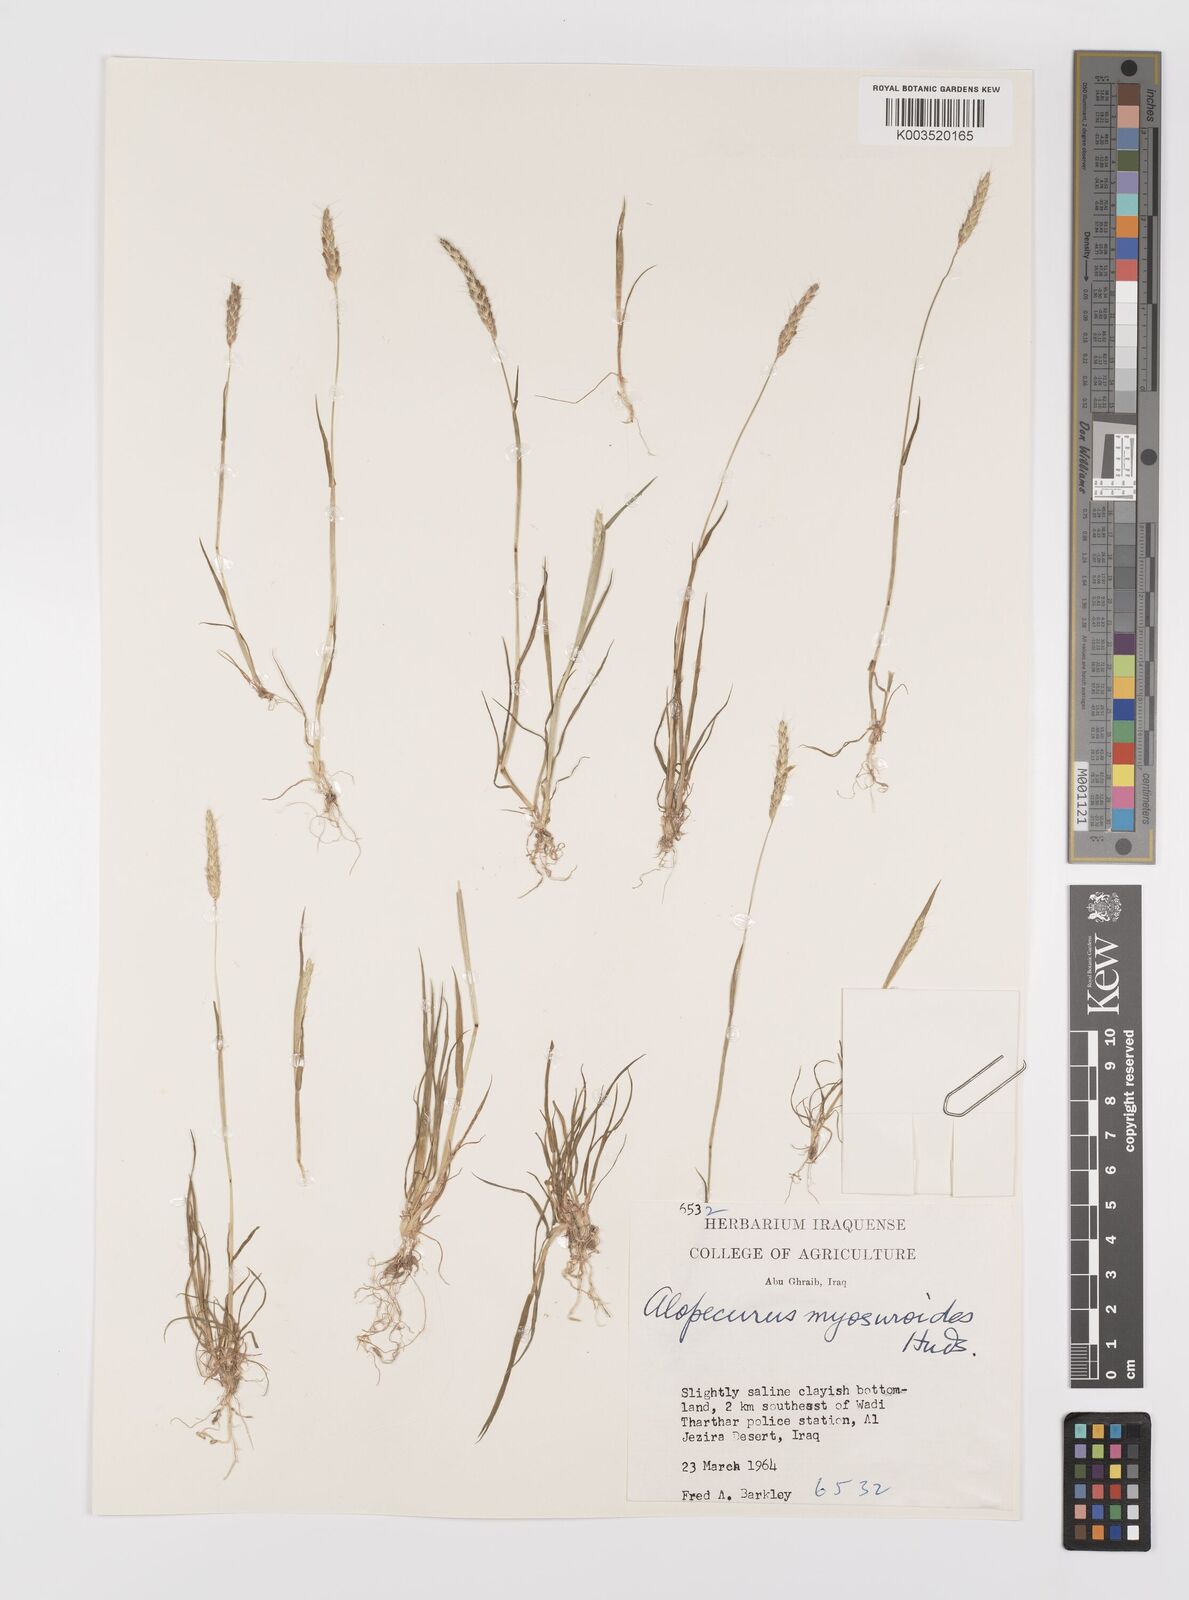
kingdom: Plantae
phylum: Tracheophyta
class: Liliopsida
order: Poales
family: Poaceae
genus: Alopecurus
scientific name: Alopecurus myosuroides
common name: Black-grass
